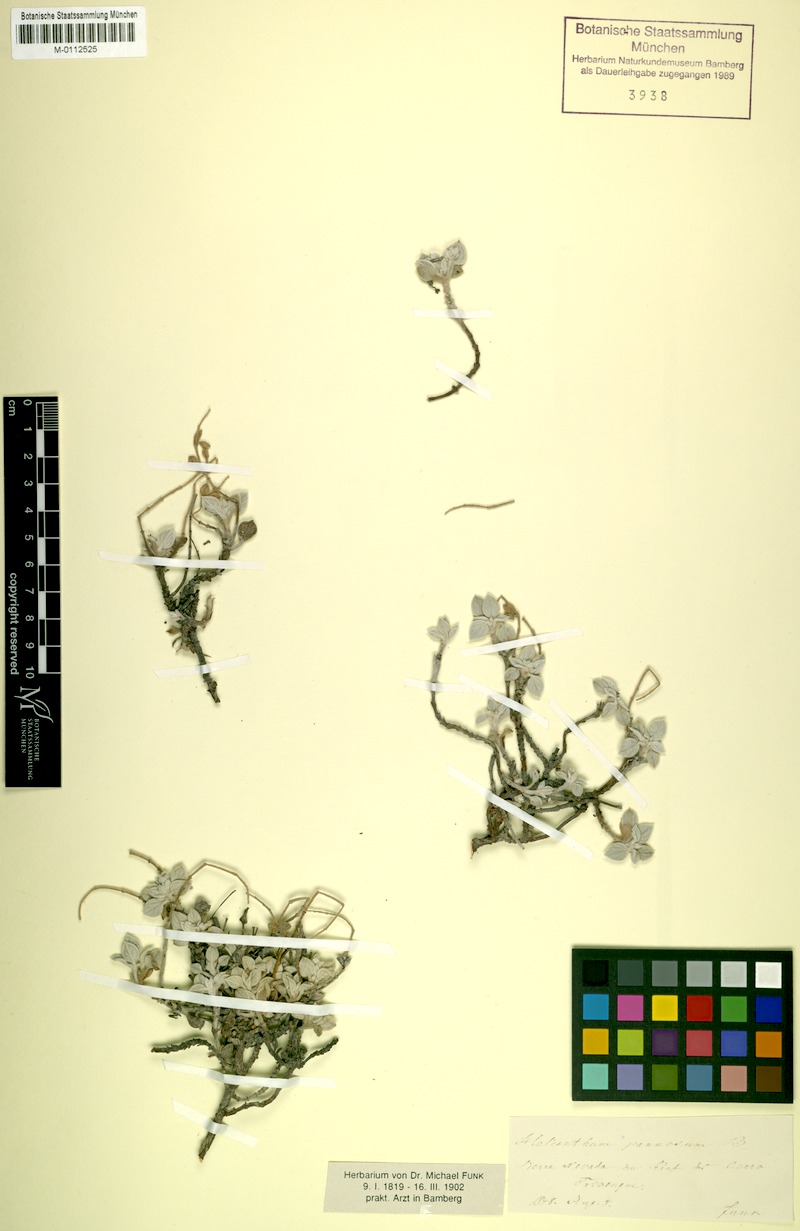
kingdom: Plantae
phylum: Tracheophyta
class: Magnoliopsida
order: Malvales
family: Cistaceae
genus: Helianthemum
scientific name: Helianthemum pannosum
